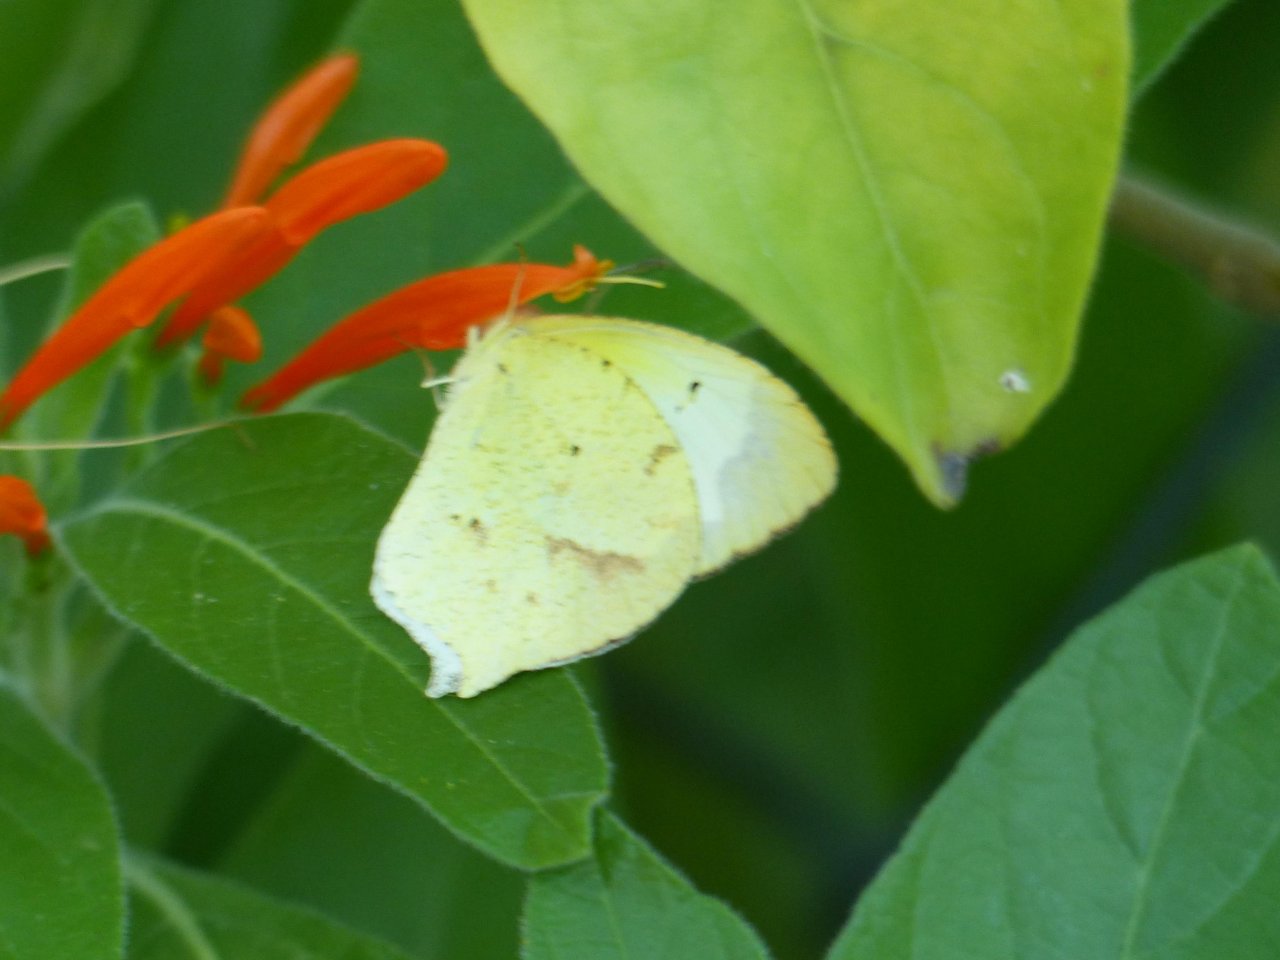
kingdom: Animalia
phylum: Arthropoda
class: Insecta
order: Lepidoptera
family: Pieridae
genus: Eurema
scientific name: Eurema mexicana
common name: Mexican Yellow
